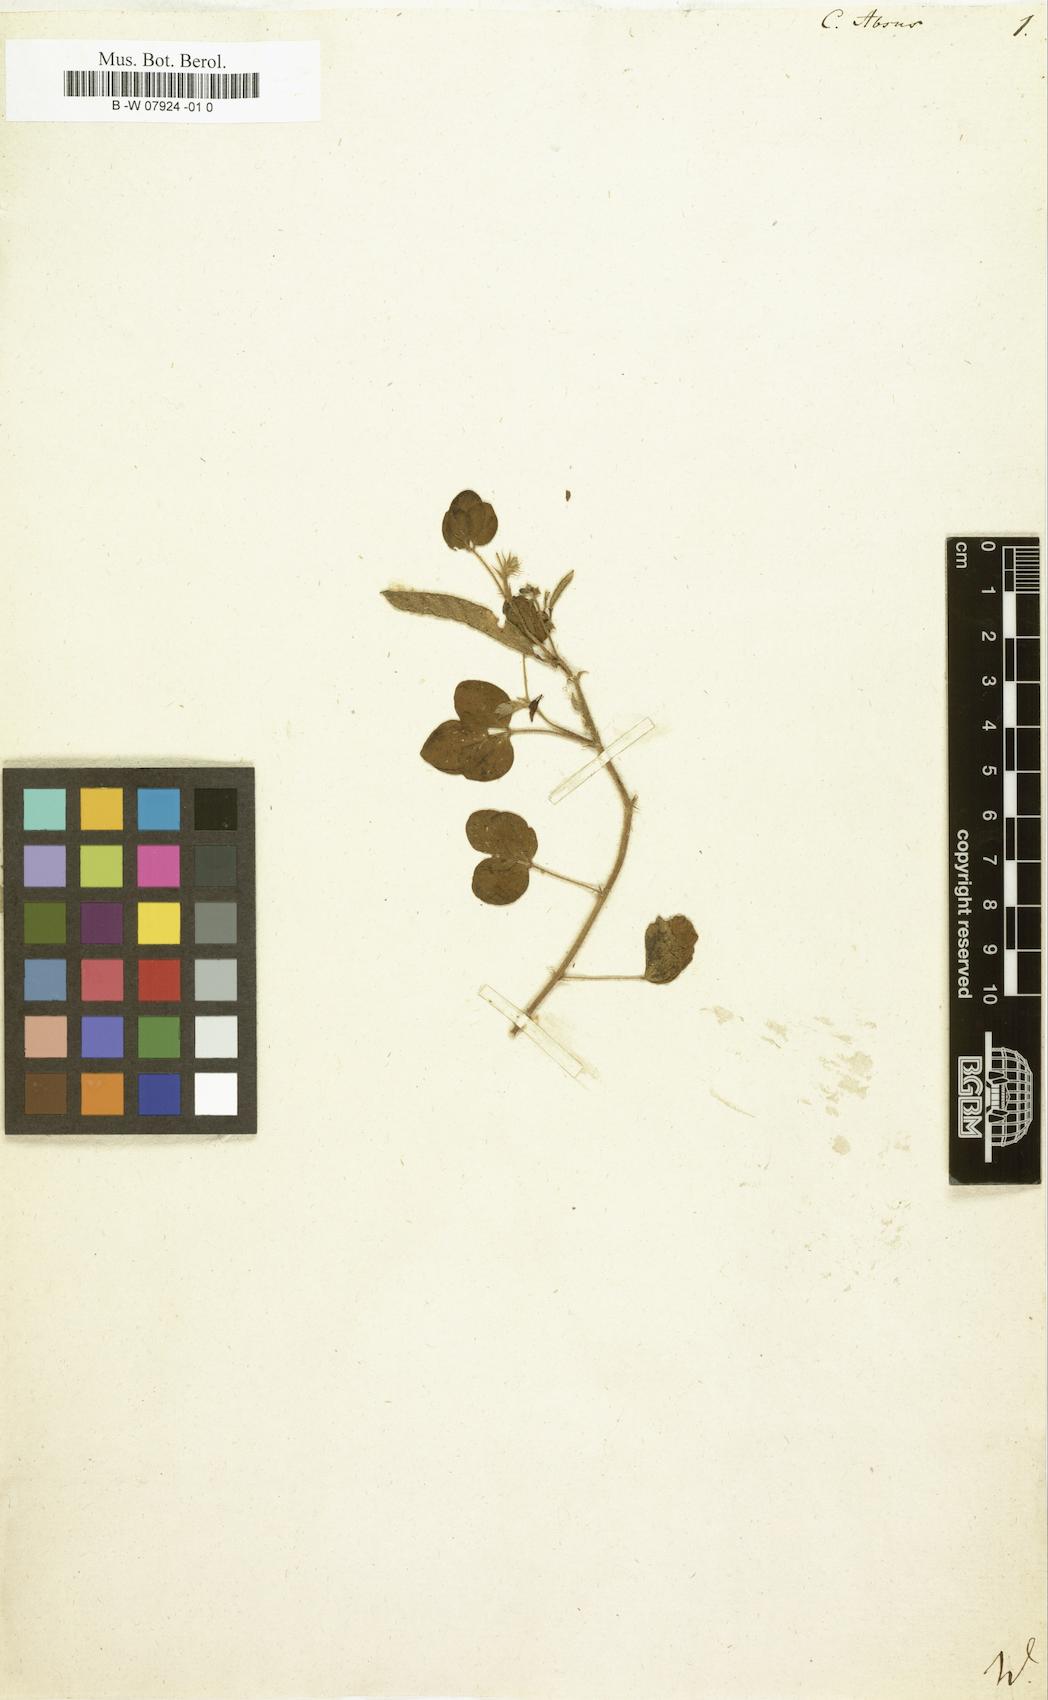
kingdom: Plantae
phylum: Tracheophyta
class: Magnoliopsida
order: Fabales
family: Fabaceae
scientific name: Fabaceae
